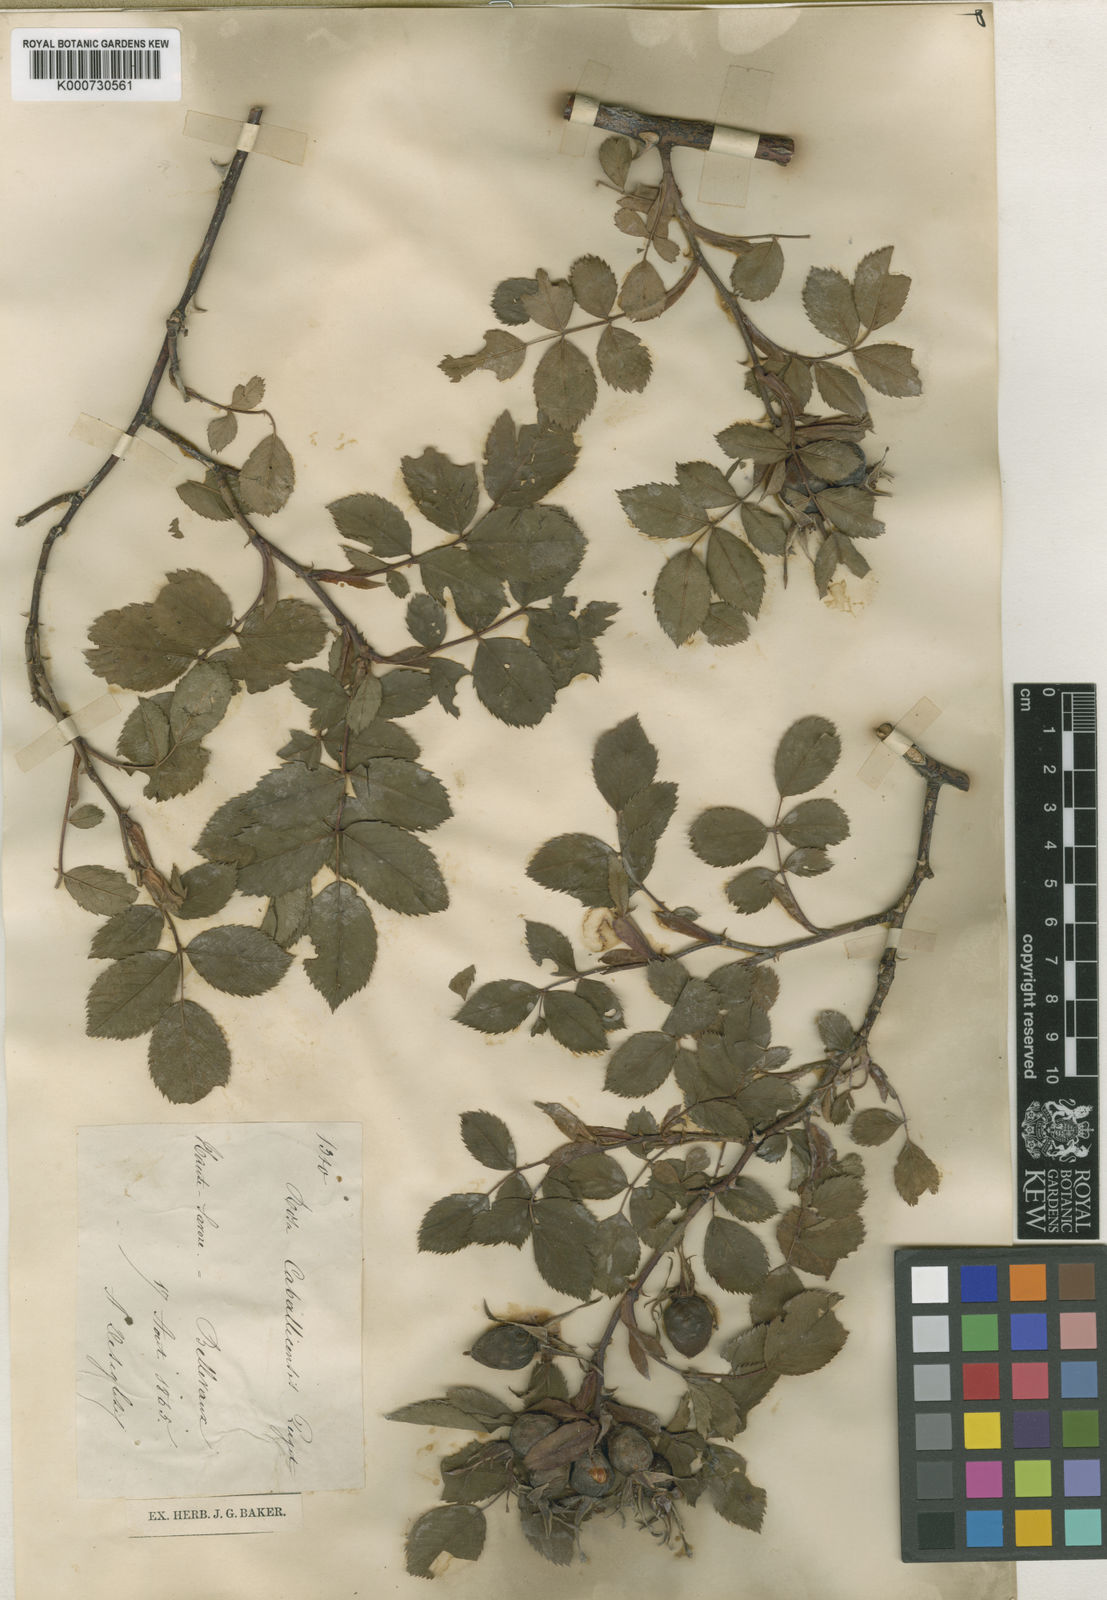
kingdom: Plantae
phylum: Tracheophyta
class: Magnoliopsida
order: Rosales
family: Rosaceae
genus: Rosa
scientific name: Rosa dumalis
